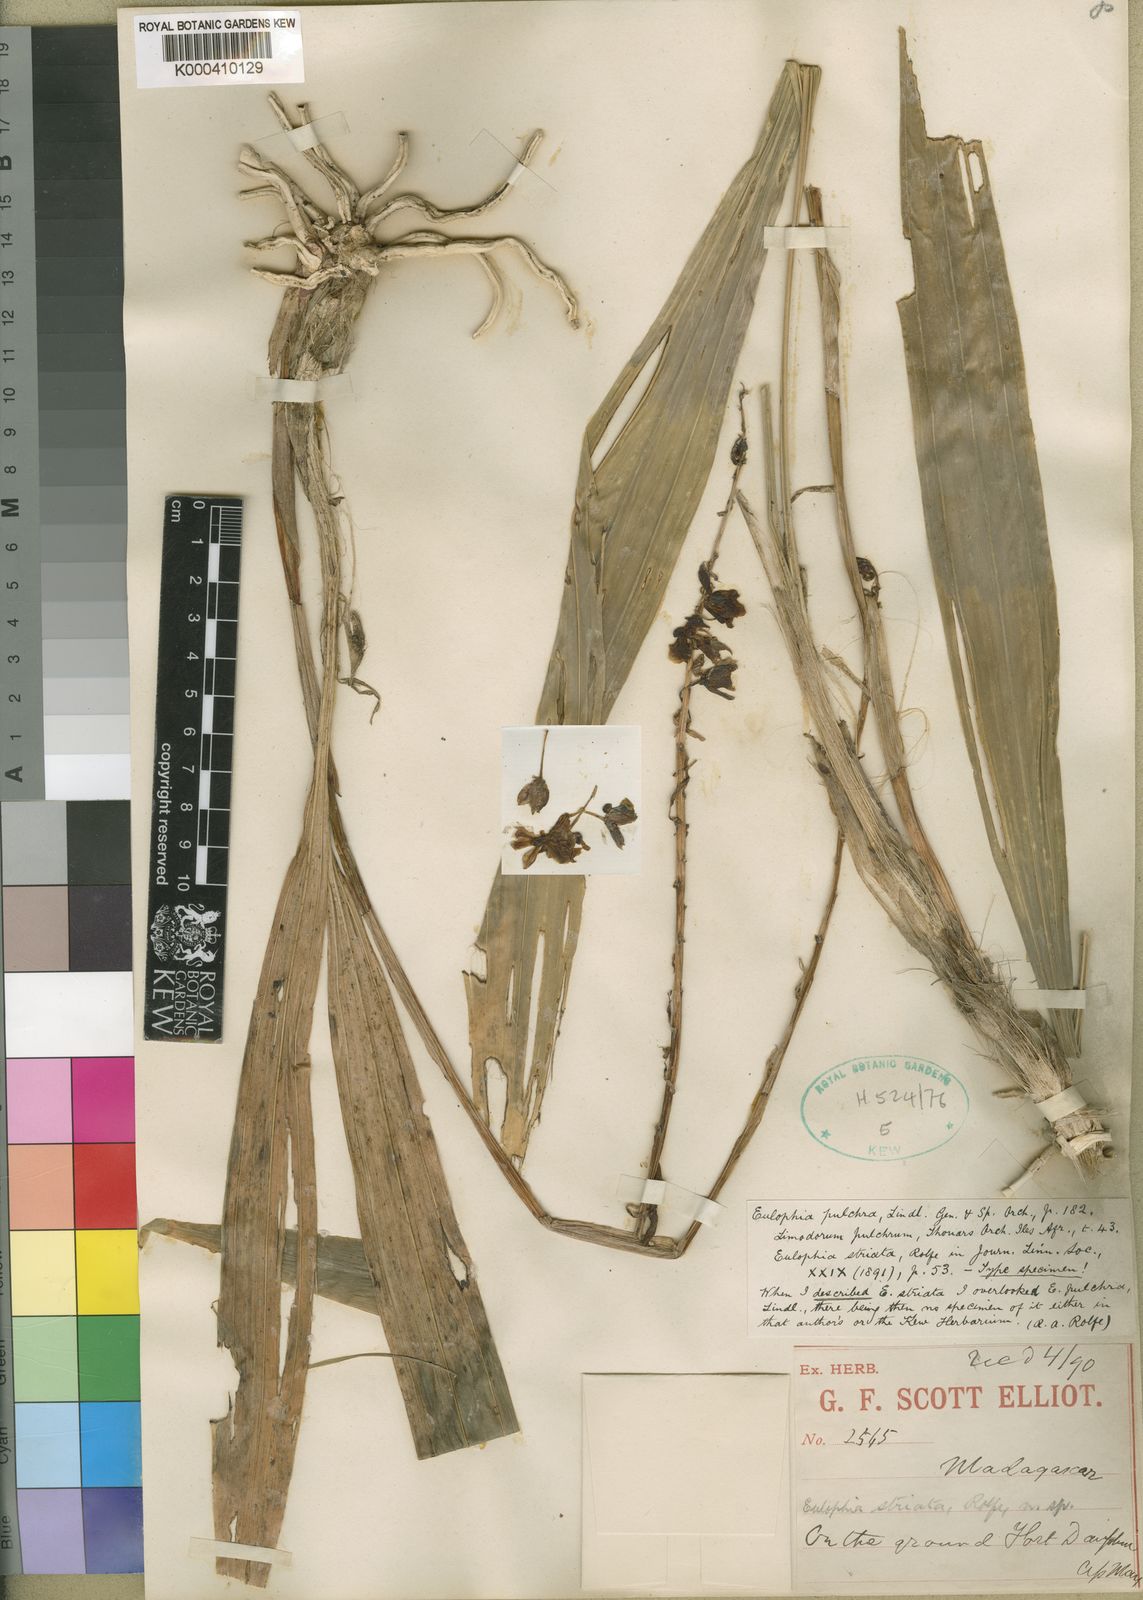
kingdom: Plantae
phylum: Tracheophyta
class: Liliopsida
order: Asparagales
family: Orchidaceae
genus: Eulophia
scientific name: Eulophia pulchra
